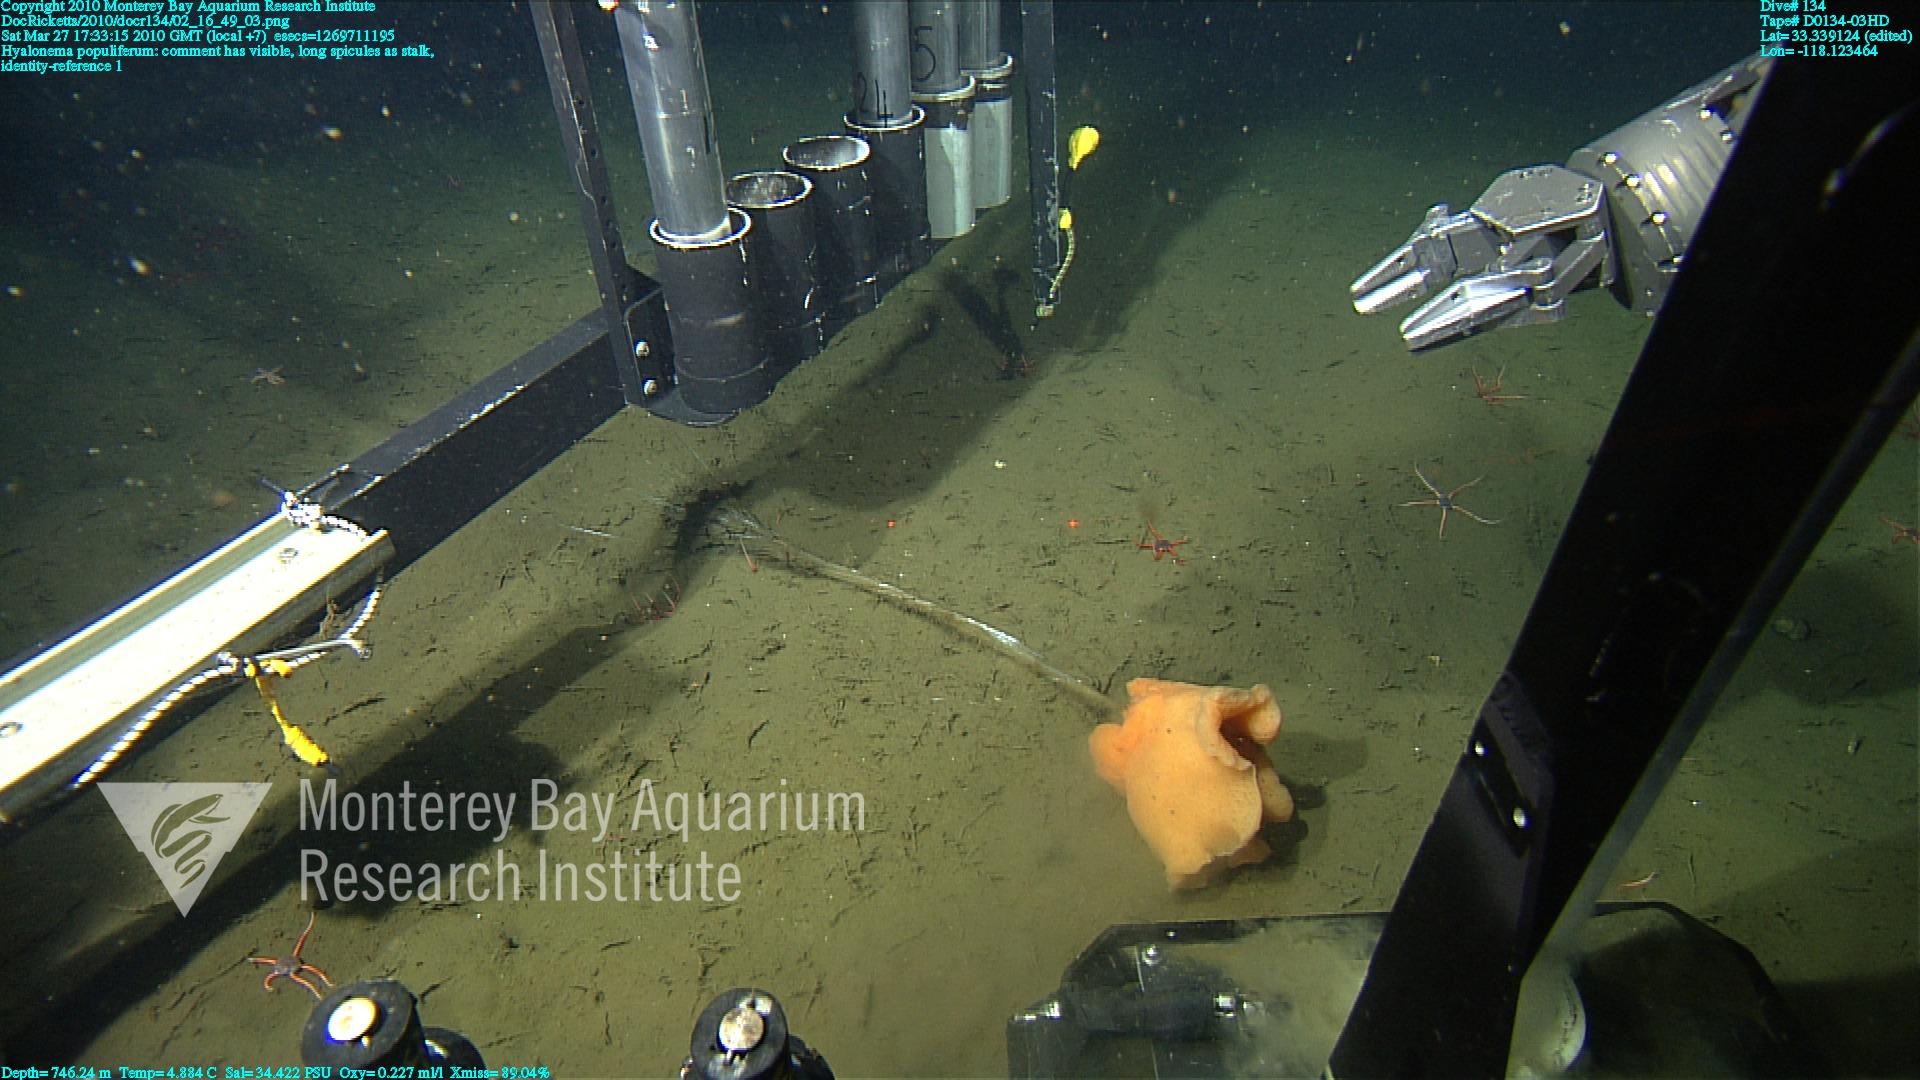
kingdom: Animalia
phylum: Porifera
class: Hexactinellida
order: Amphidiscosida
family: Hyalonematidae
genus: Hyalonema
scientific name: Hyalonema populiferum
